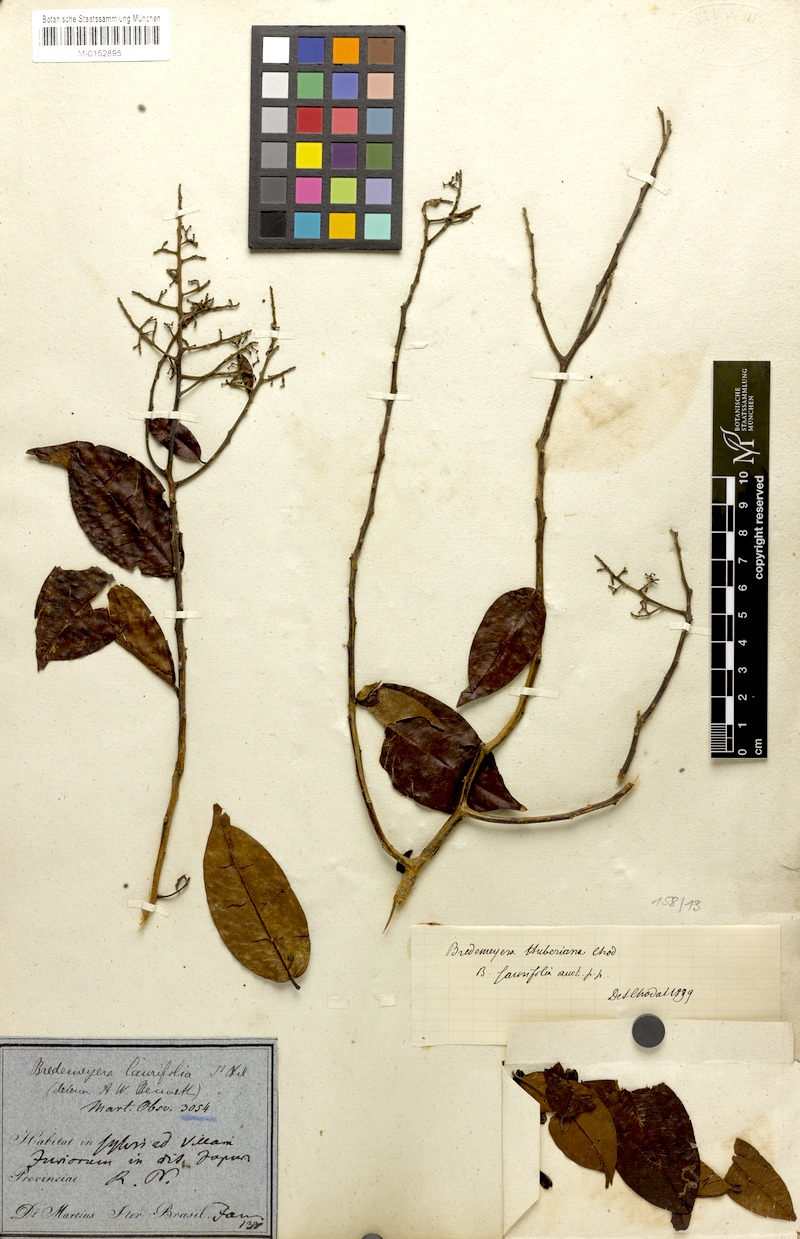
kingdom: Plantae
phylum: Tracheophyta
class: Magnoliopsida
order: Fabales
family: Polygalaceae
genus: Bredemeyera
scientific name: Bredemeyera myrtifolia
